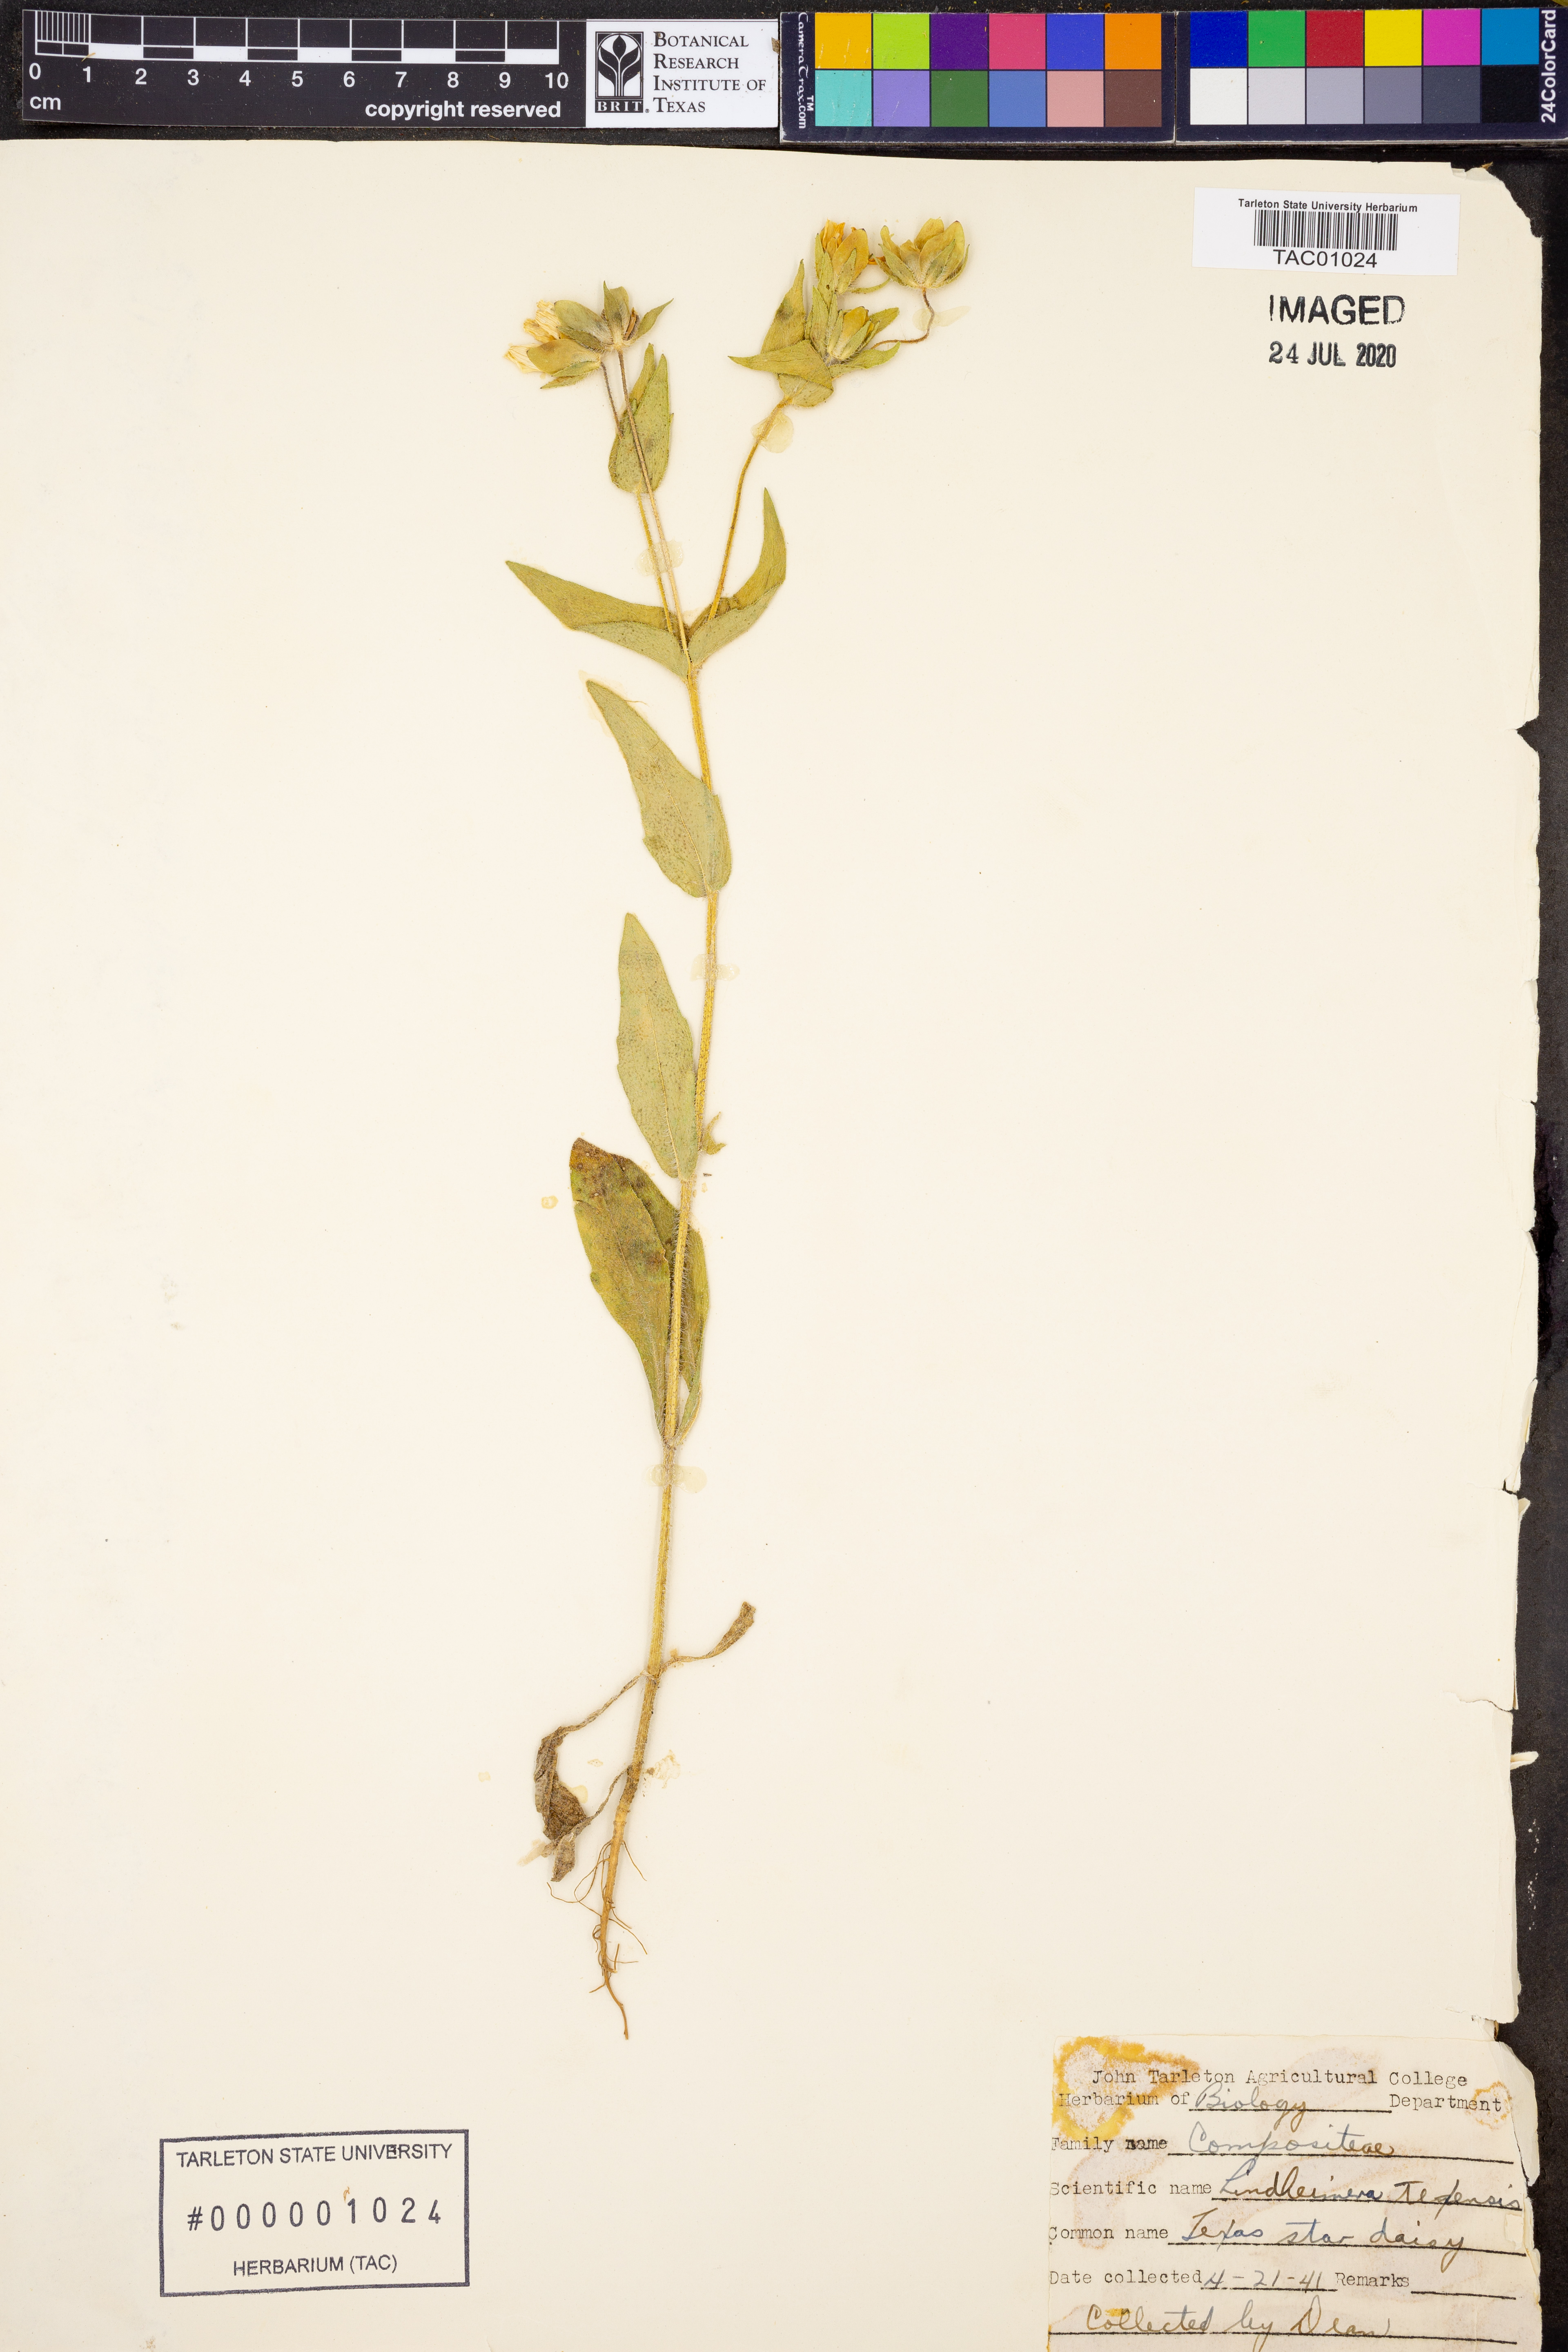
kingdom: Plantae
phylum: Tracheophyta
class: Magnoliopsida
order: Asterales
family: Asteraceae
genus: Lindheimera
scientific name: Lindheimera texana
